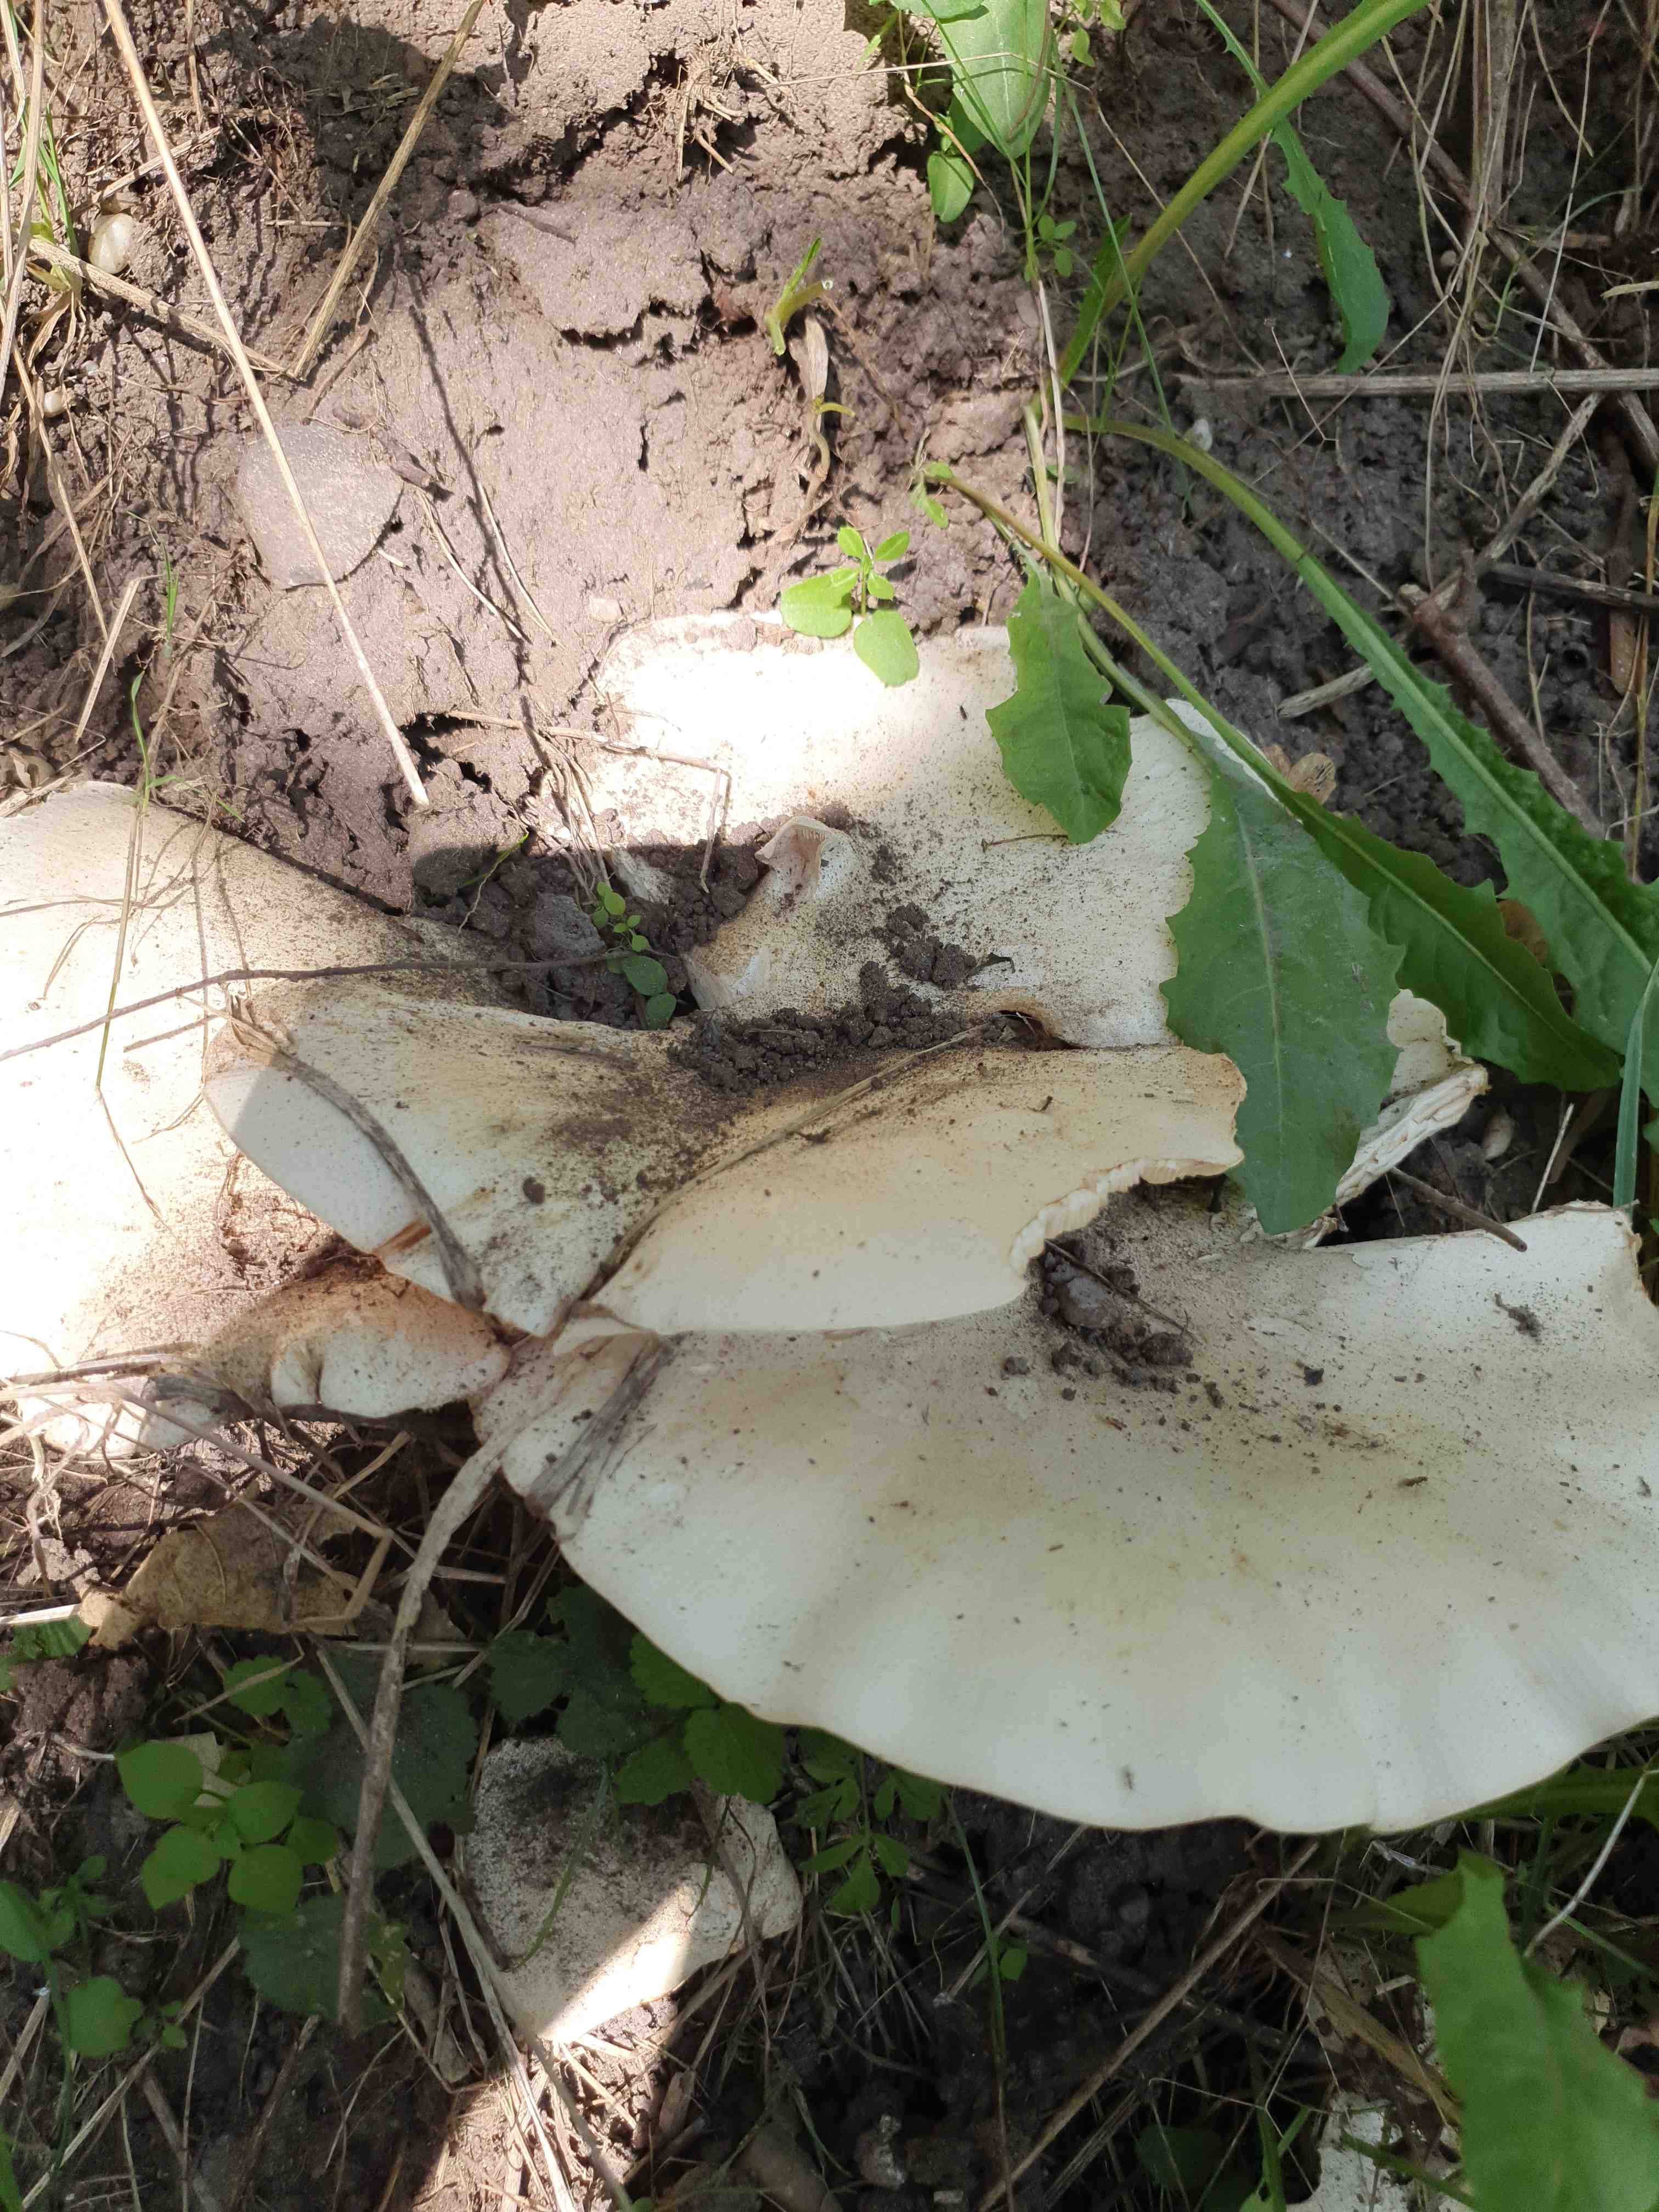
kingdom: Fungi
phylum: Basidiomycota
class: Agaricomycetes
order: Agaricales
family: Tricholomataceae
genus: Aspropaxillus
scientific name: Aspropaxillus giganteus
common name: kæmpe-tragtridderhat
